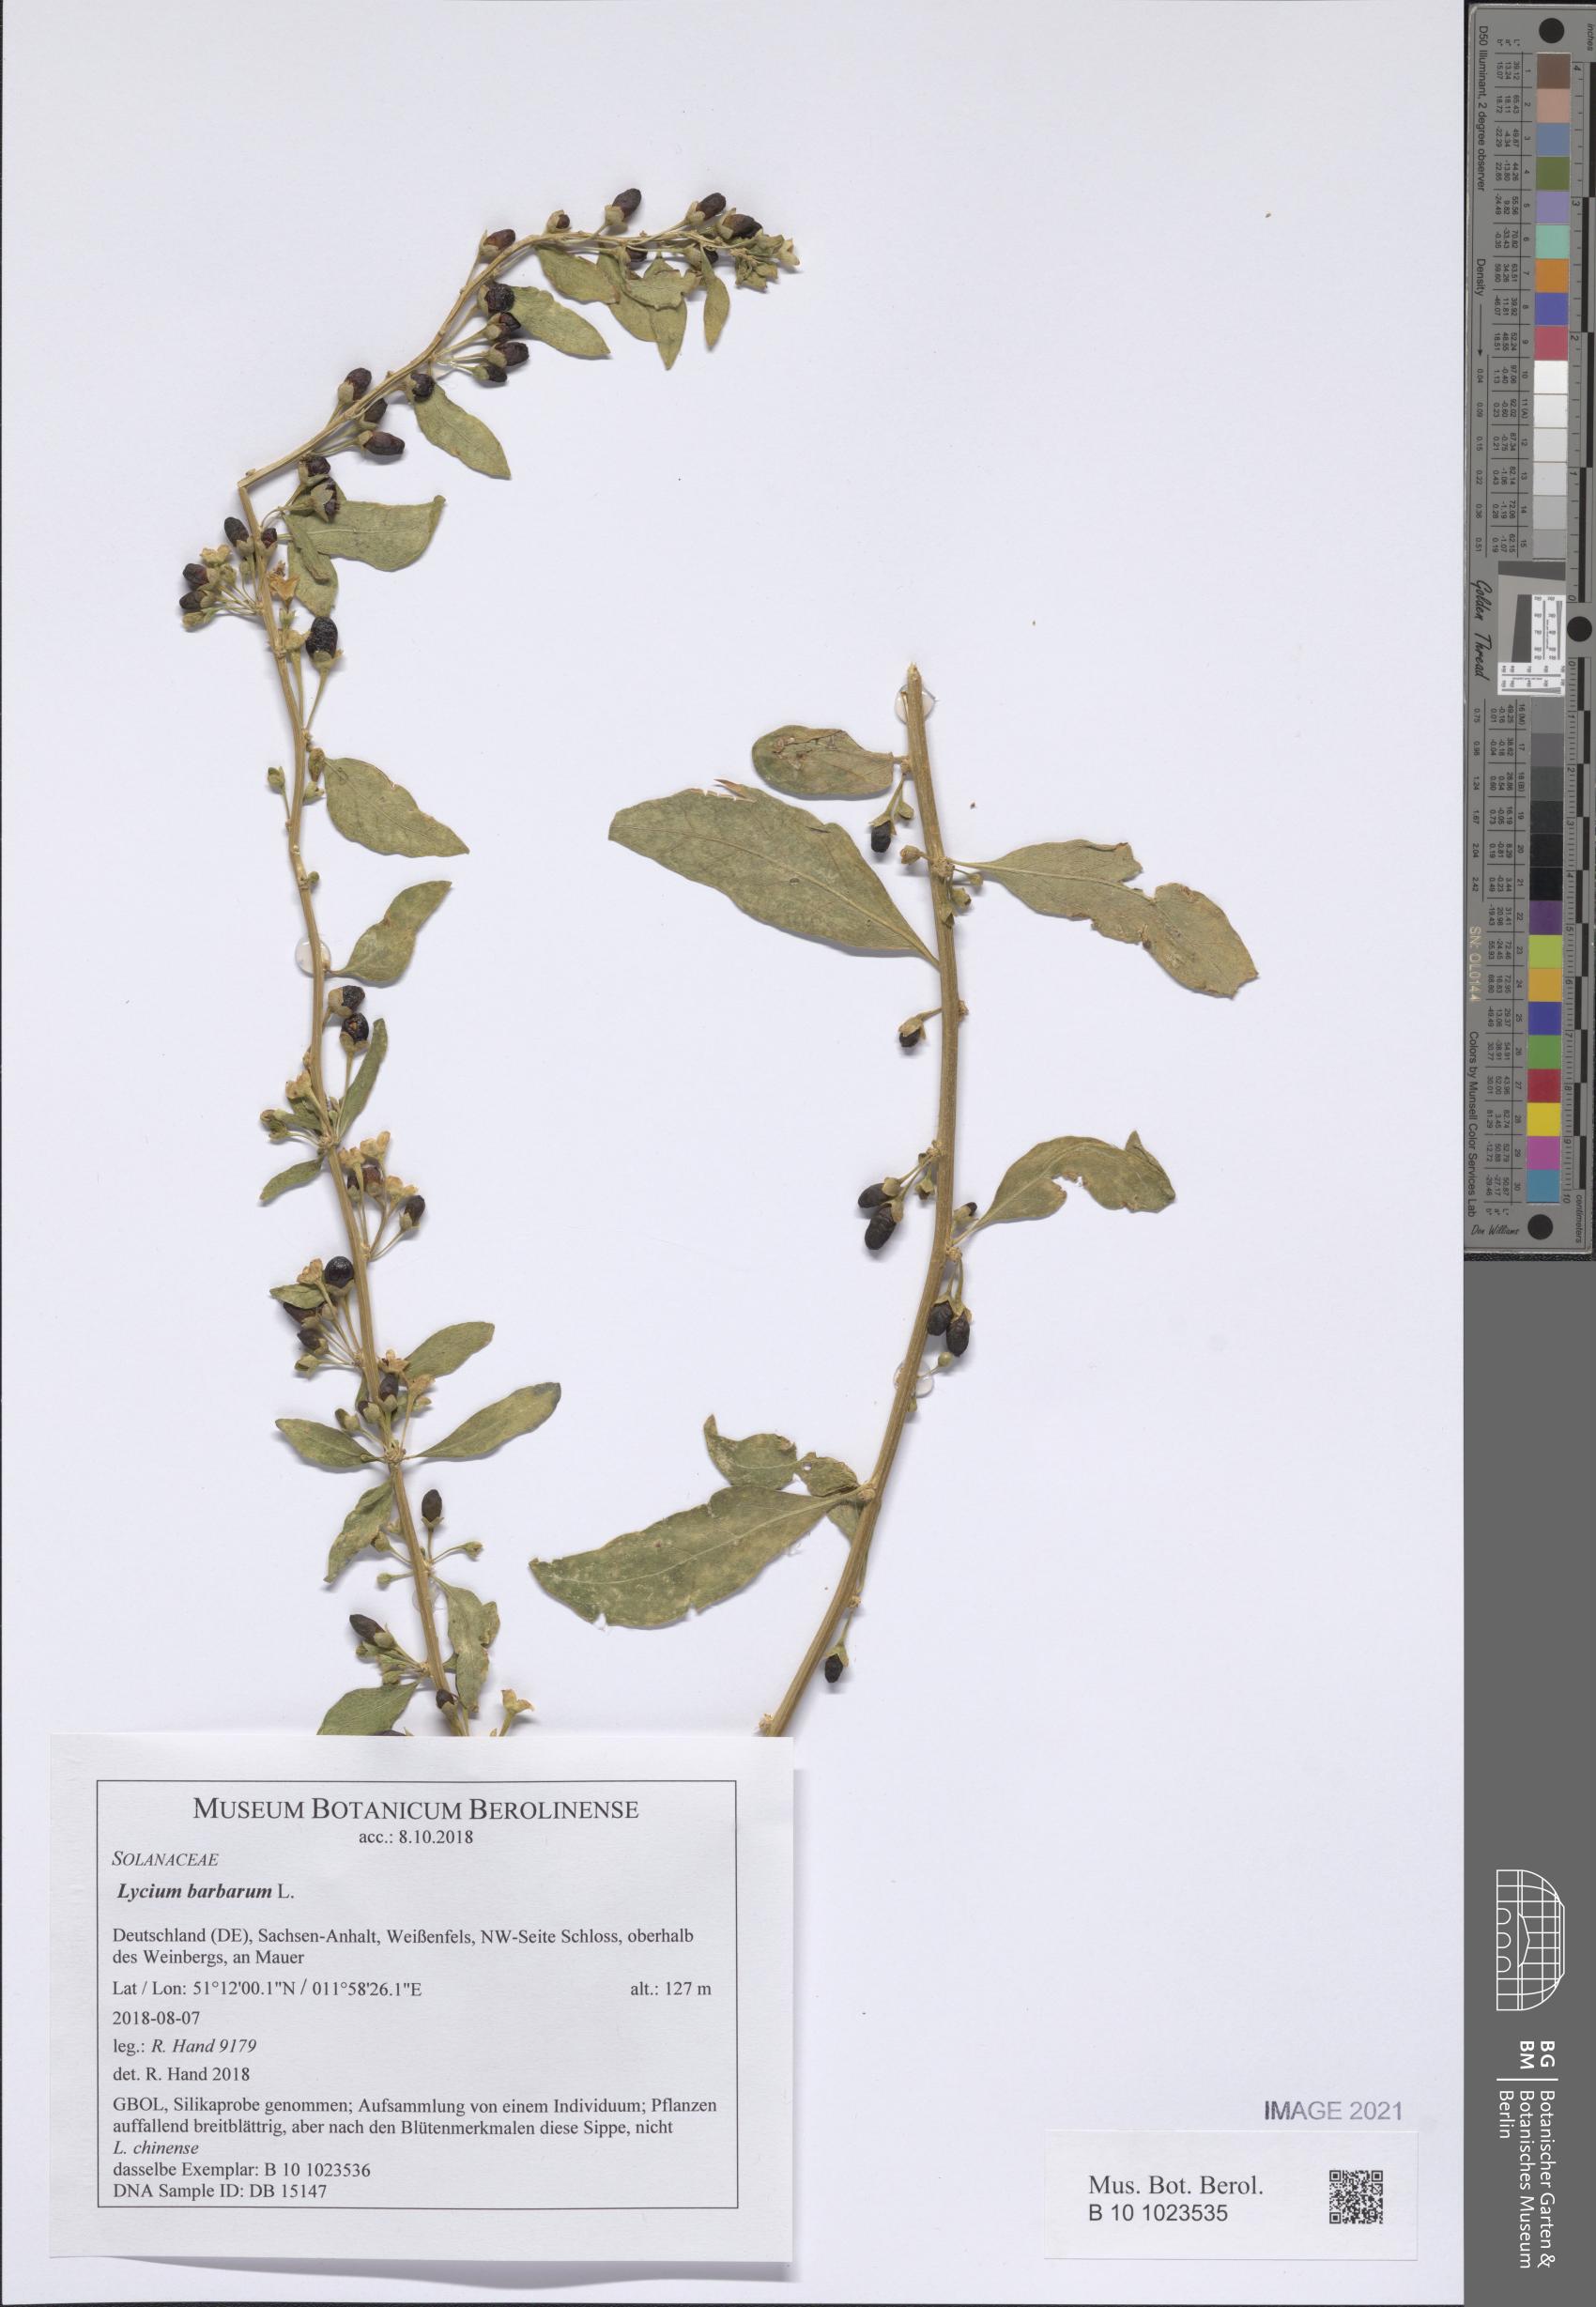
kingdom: Plantae
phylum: Tracheophyta
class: Magnoliopsida
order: Solanales
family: Solanaceae
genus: Lycium
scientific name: Lycium barbarum
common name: Duke of argyll's teaplant
